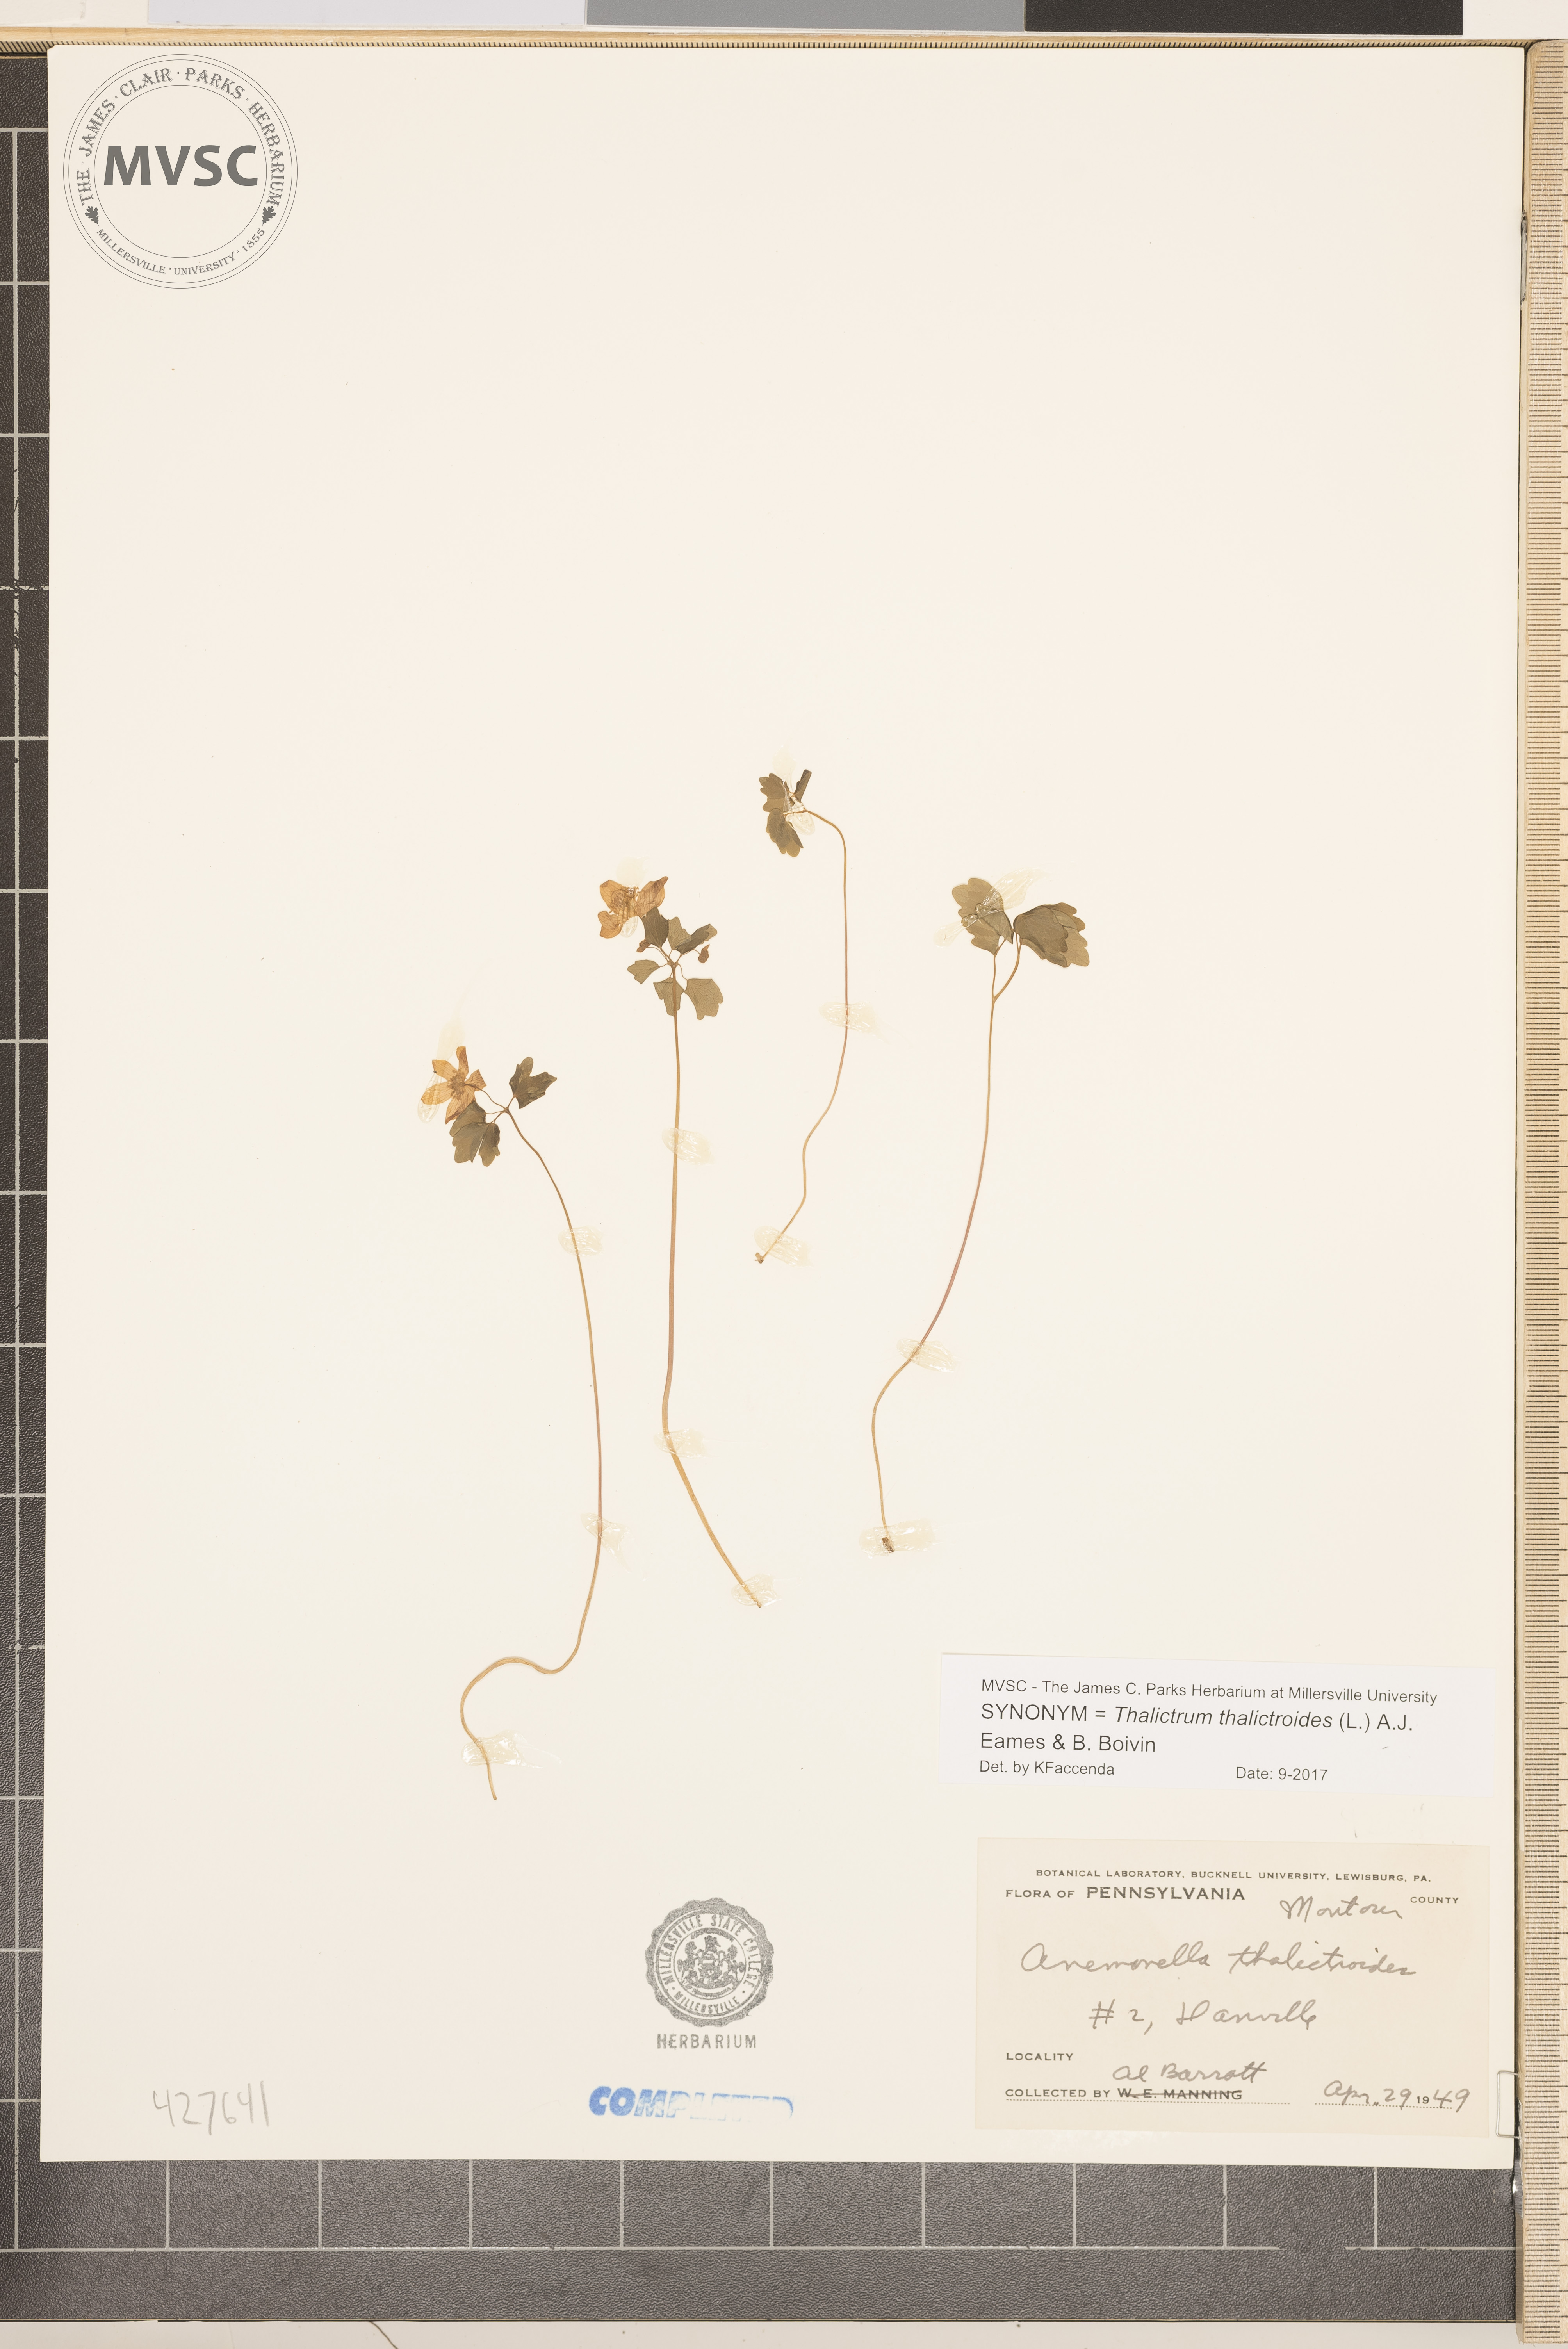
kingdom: Plantae
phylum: Tracheophyta
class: Magnoliopsida
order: Ranunculales
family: Ranunculaceae
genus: Thalictrum
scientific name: Thalictrum thalictroides
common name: Rue anemone
